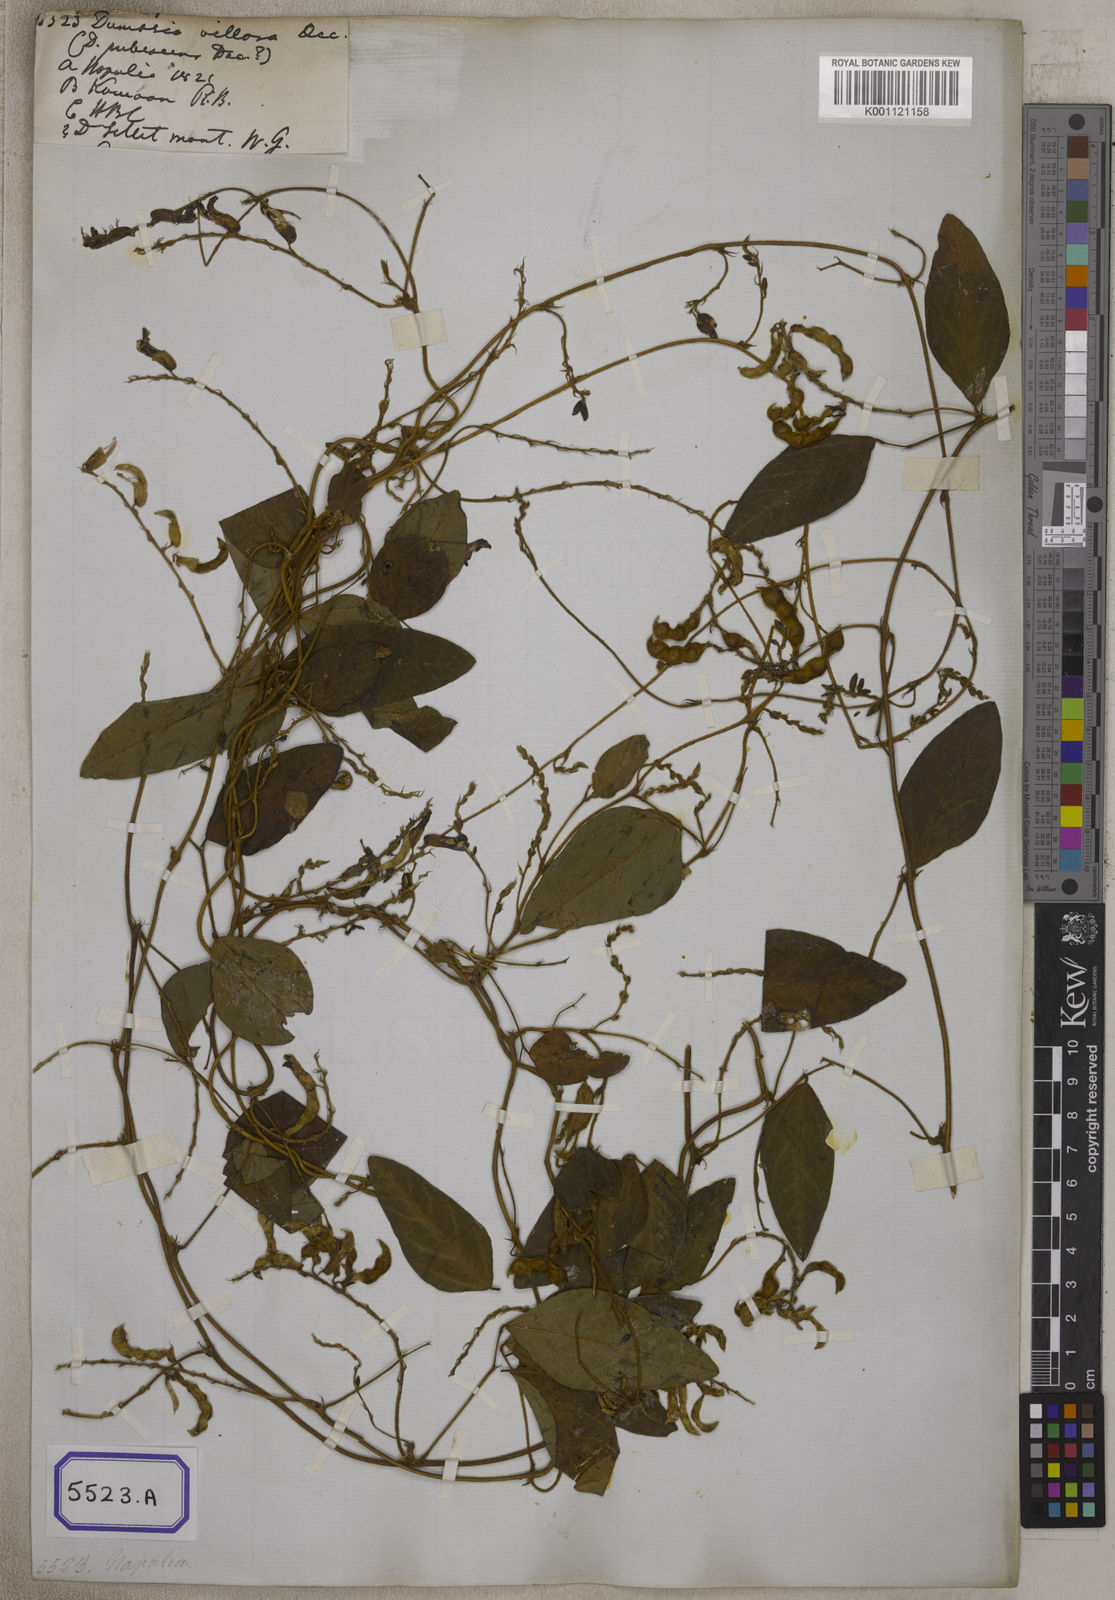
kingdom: Plantae
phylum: Tracheophyta
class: Magnoliopsida
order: Fabales
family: Fabaceae
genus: Dumasia
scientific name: Dumasia villosa
